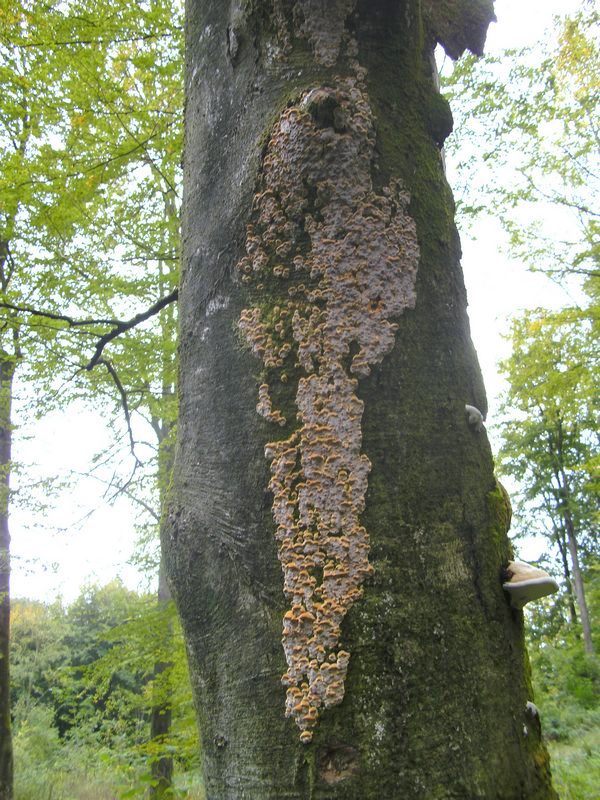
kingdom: Fungi
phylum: Basidiomycota
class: Agaricomycetes
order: Hymenochaetales
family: Hymenochaetaceae
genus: Mensularia
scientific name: Mensularia nodulosa
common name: bøge-spejlporesvamp
